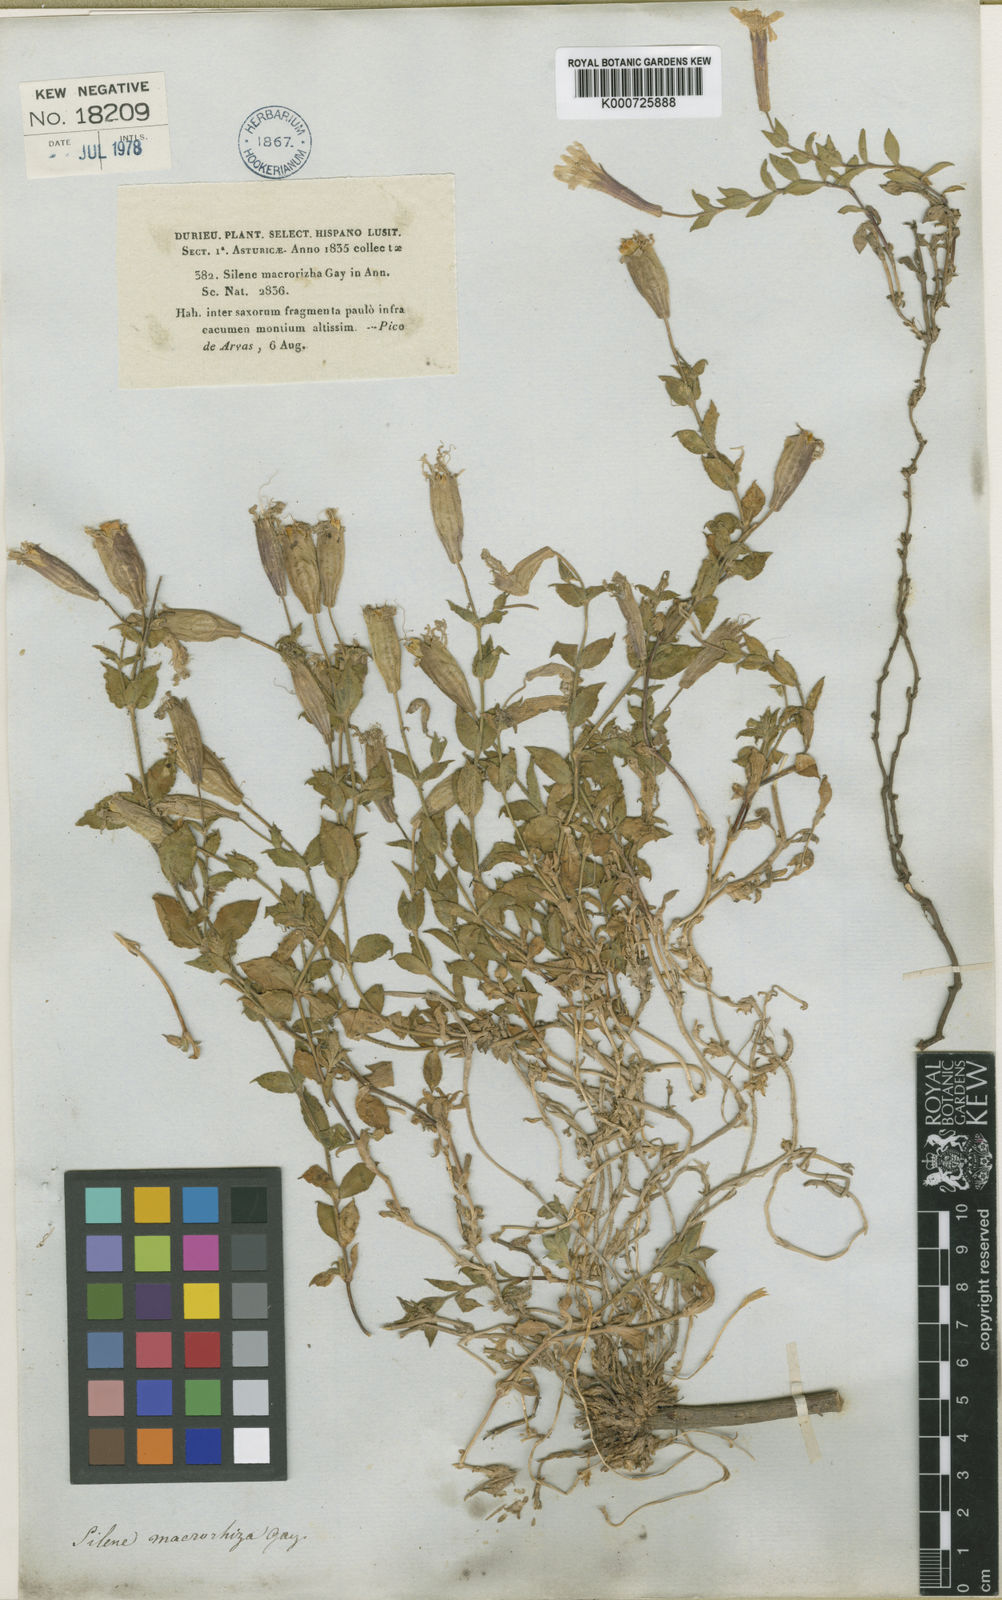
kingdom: Plantae
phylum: Tracheophyta
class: Magnoliopsida
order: Caryophyllales
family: Caryophyllaceae
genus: Silene
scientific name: Silene
